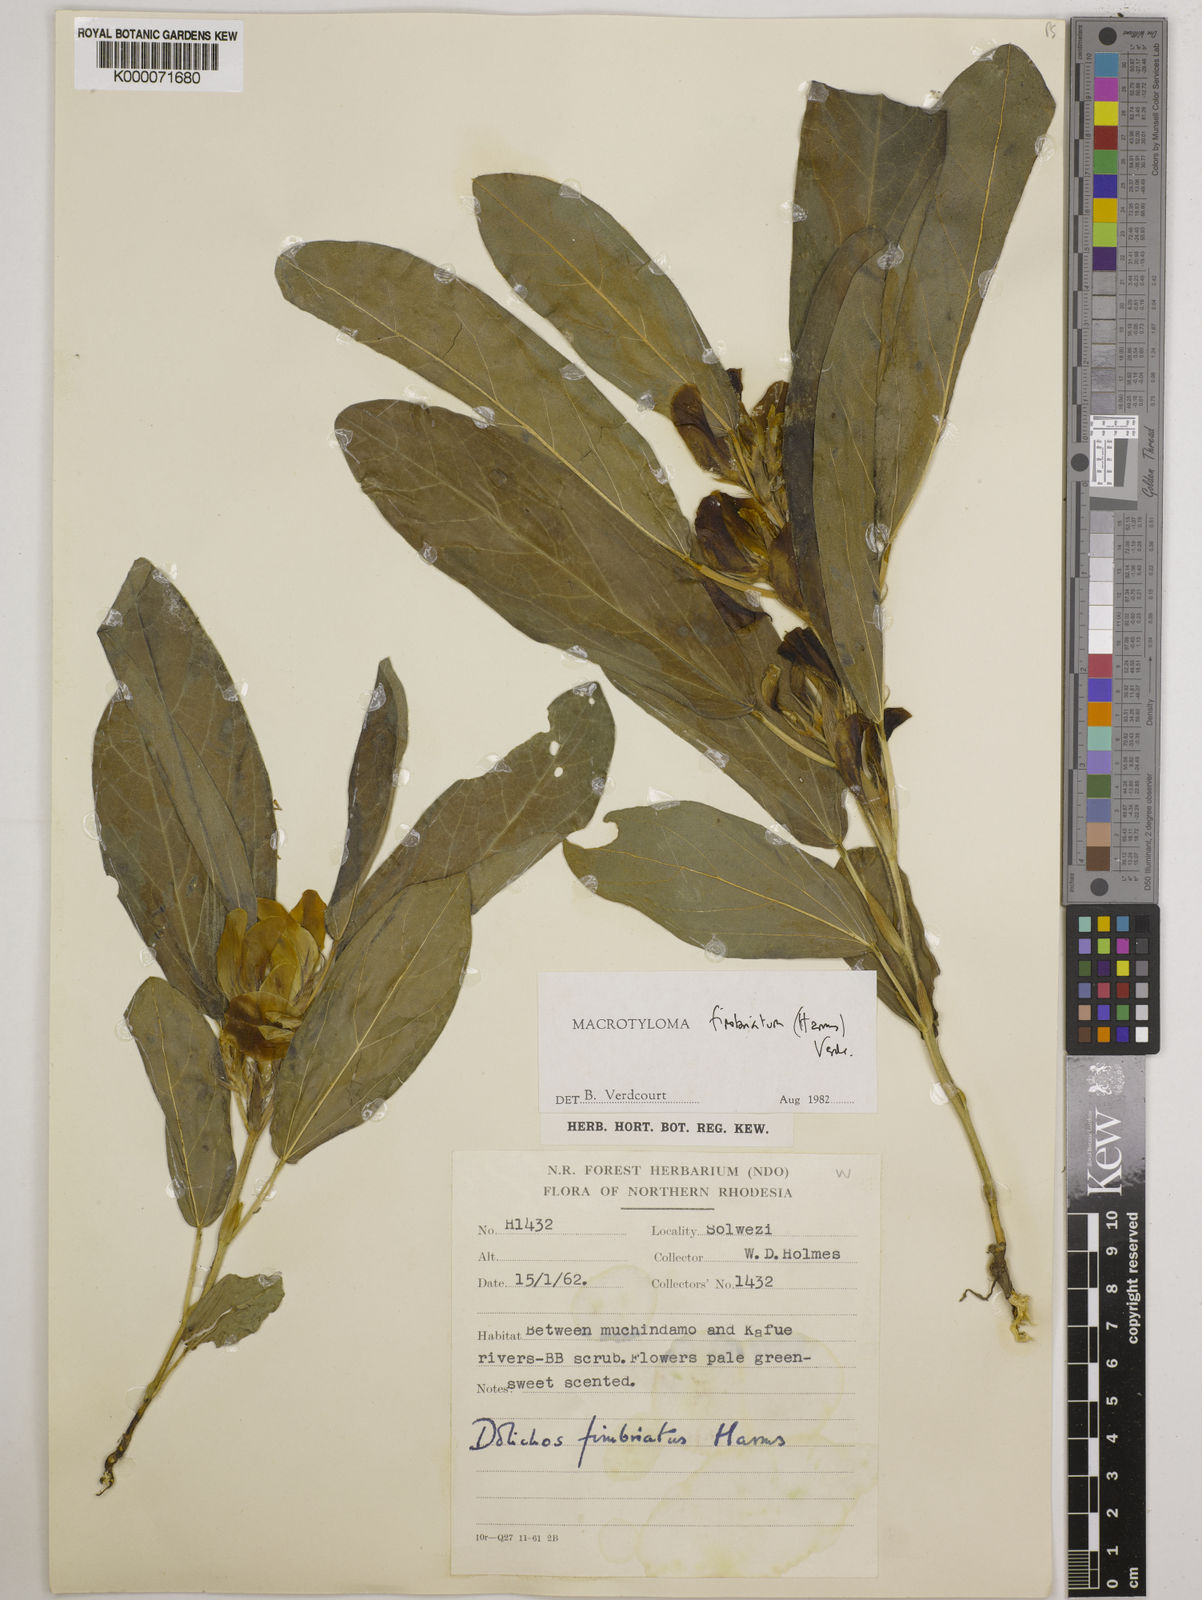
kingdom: Plantae
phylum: Tracheophyta
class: Magnoliopsida
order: Fabales
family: Fabaceae
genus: Macrotyloma
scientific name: Macrotyloma fimbriatum
